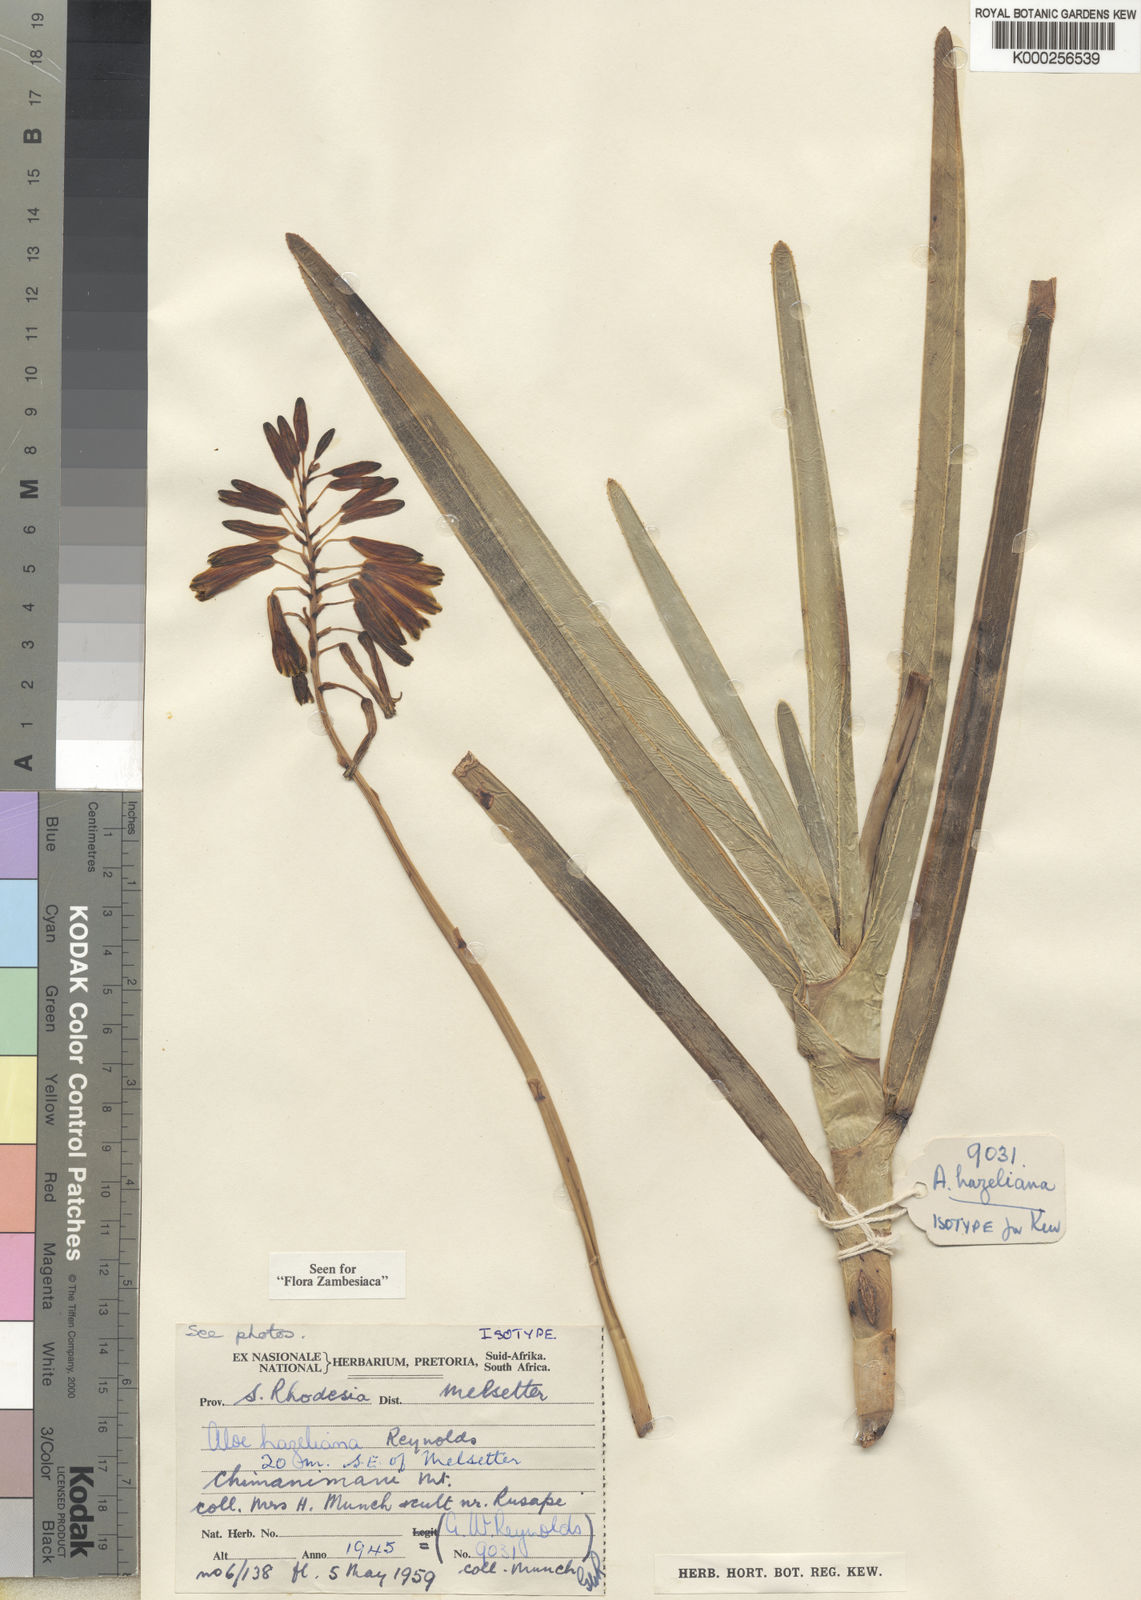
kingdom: Plantae
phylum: Tracheophyta
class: Liliopsida
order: Asparagales
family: Asphodelaceae
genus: Aloe
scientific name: Aloe hazeliana
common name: Hazel's rock aloe
